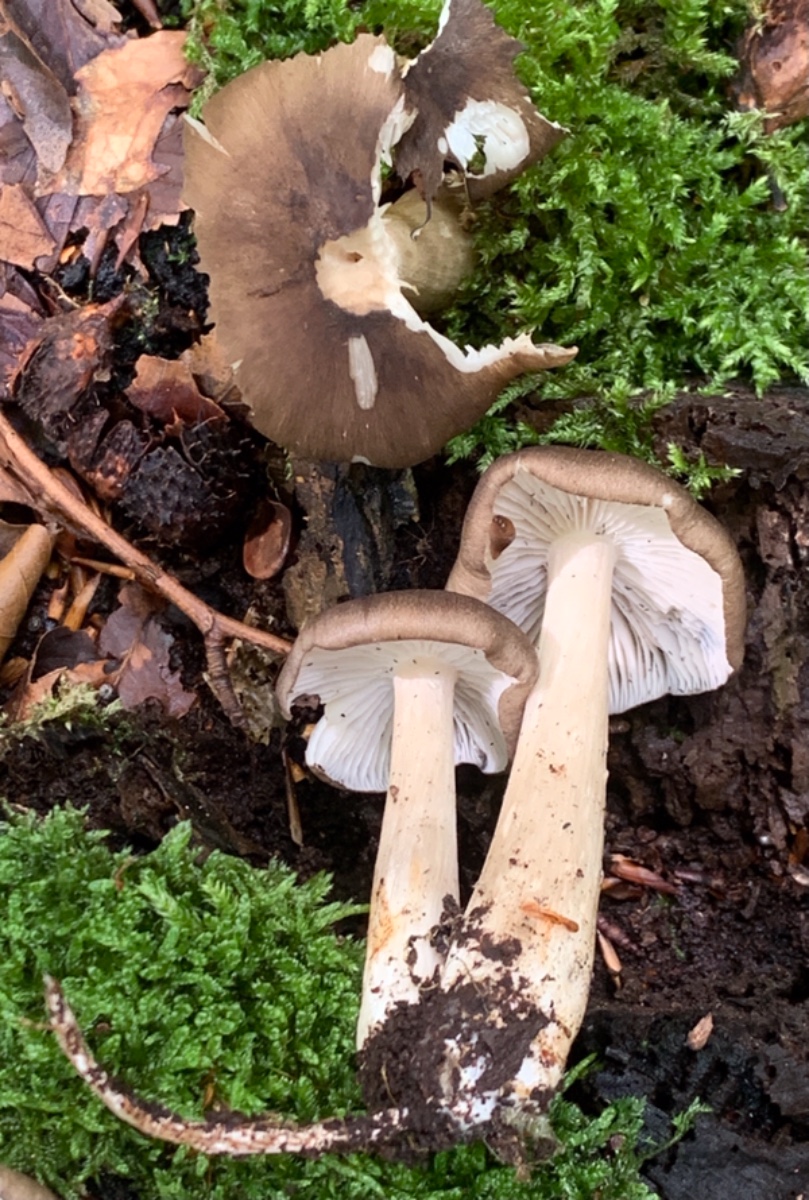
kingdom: Fungi
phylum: Basidiomycota
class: Agaricomycetes
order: Agaricales
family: Pluteaceae
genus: Pluteus
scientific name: Pluteus cervinus
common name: sodfarvet skærmhat
